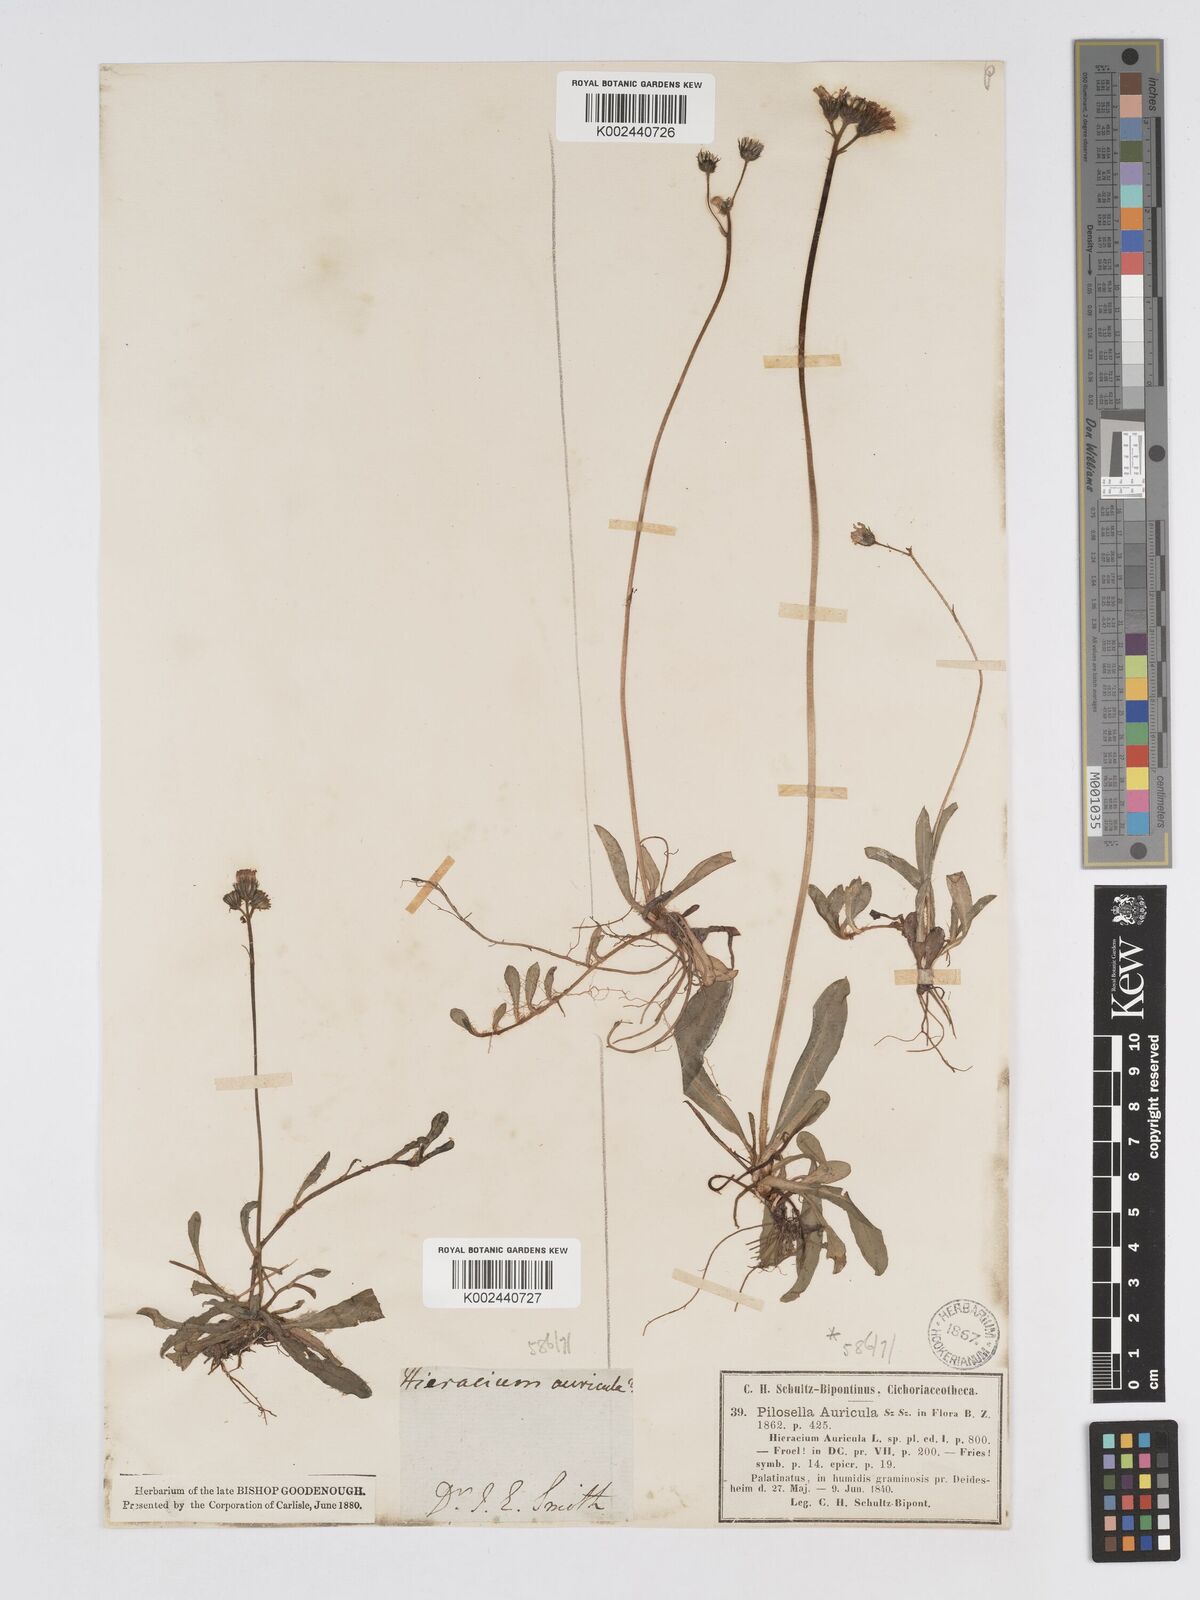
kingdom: Plantae
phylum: Tracheophyta
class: Magnoliopsida
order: Asterales
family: Asteraceae
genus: Pilosella
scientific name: Pilosella floribunda
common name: Glaucous hawkweed
